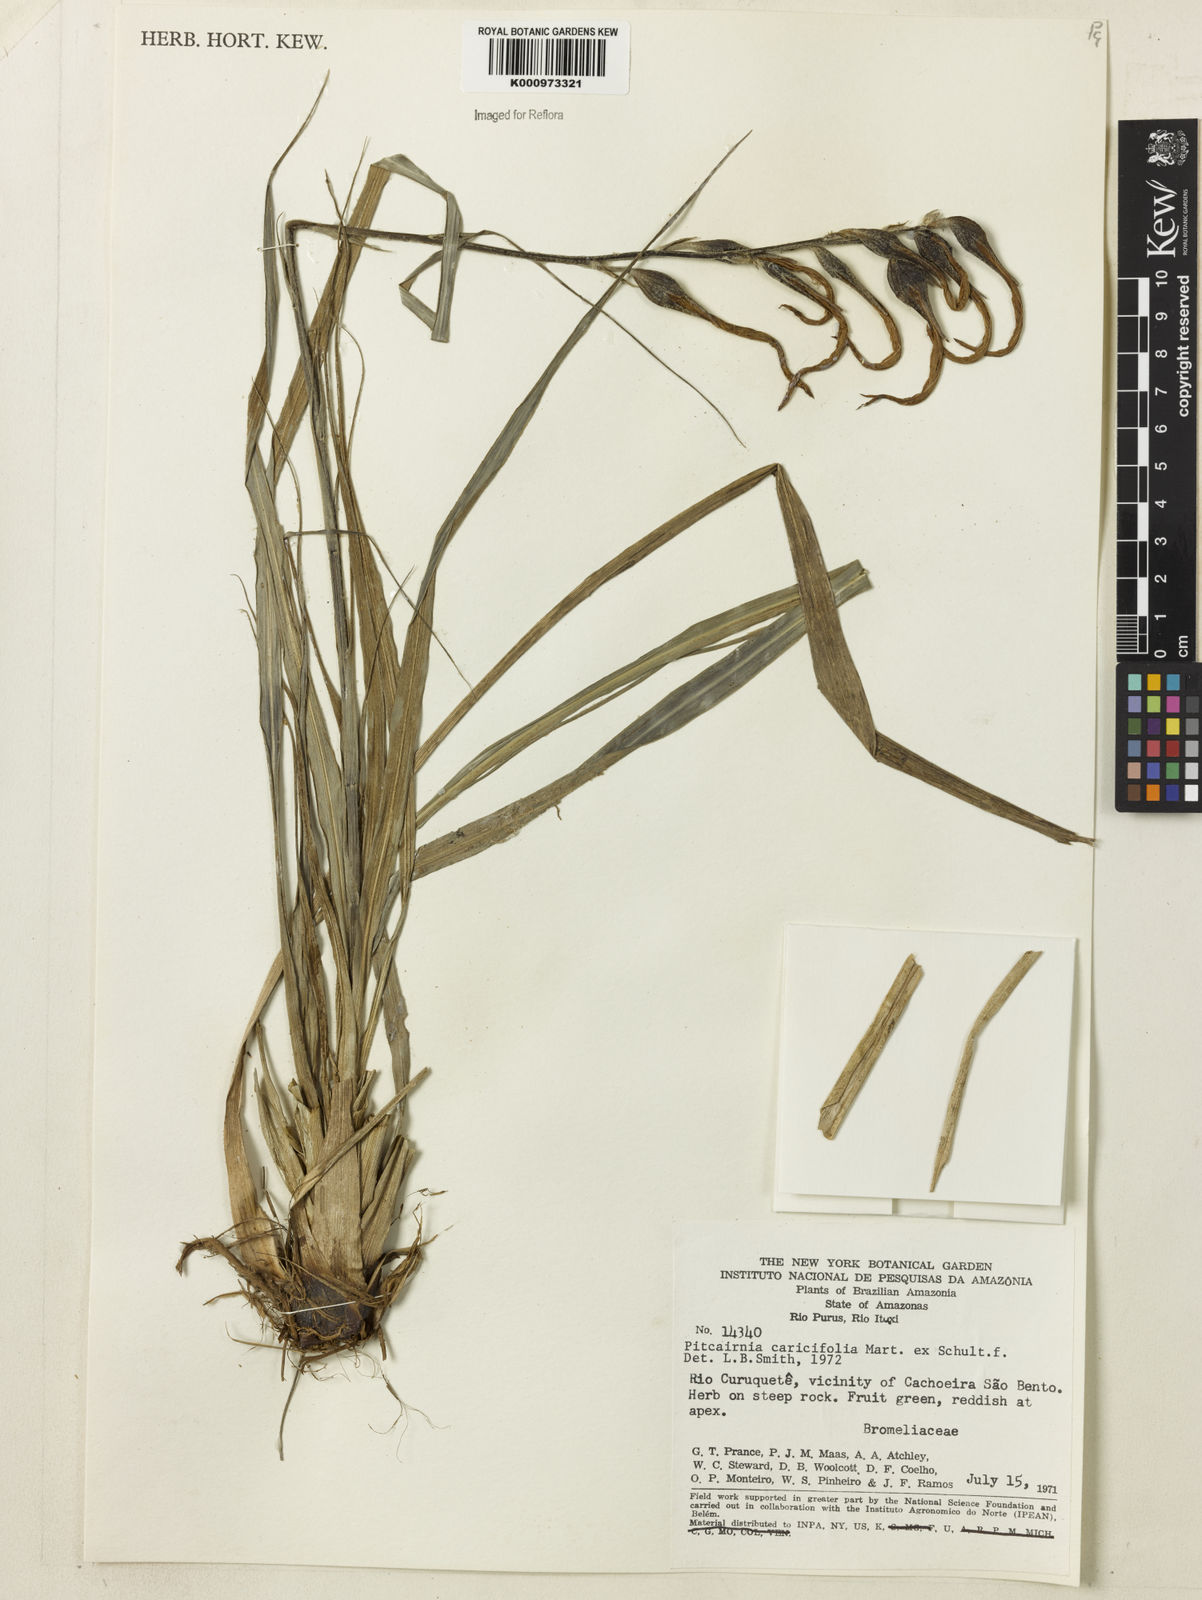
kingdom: Plantae
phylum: Tracheophyta
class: Liliopsida
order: Poales
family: Bromeliaceae
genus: Pitcairnia
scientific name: Pitcairnia
